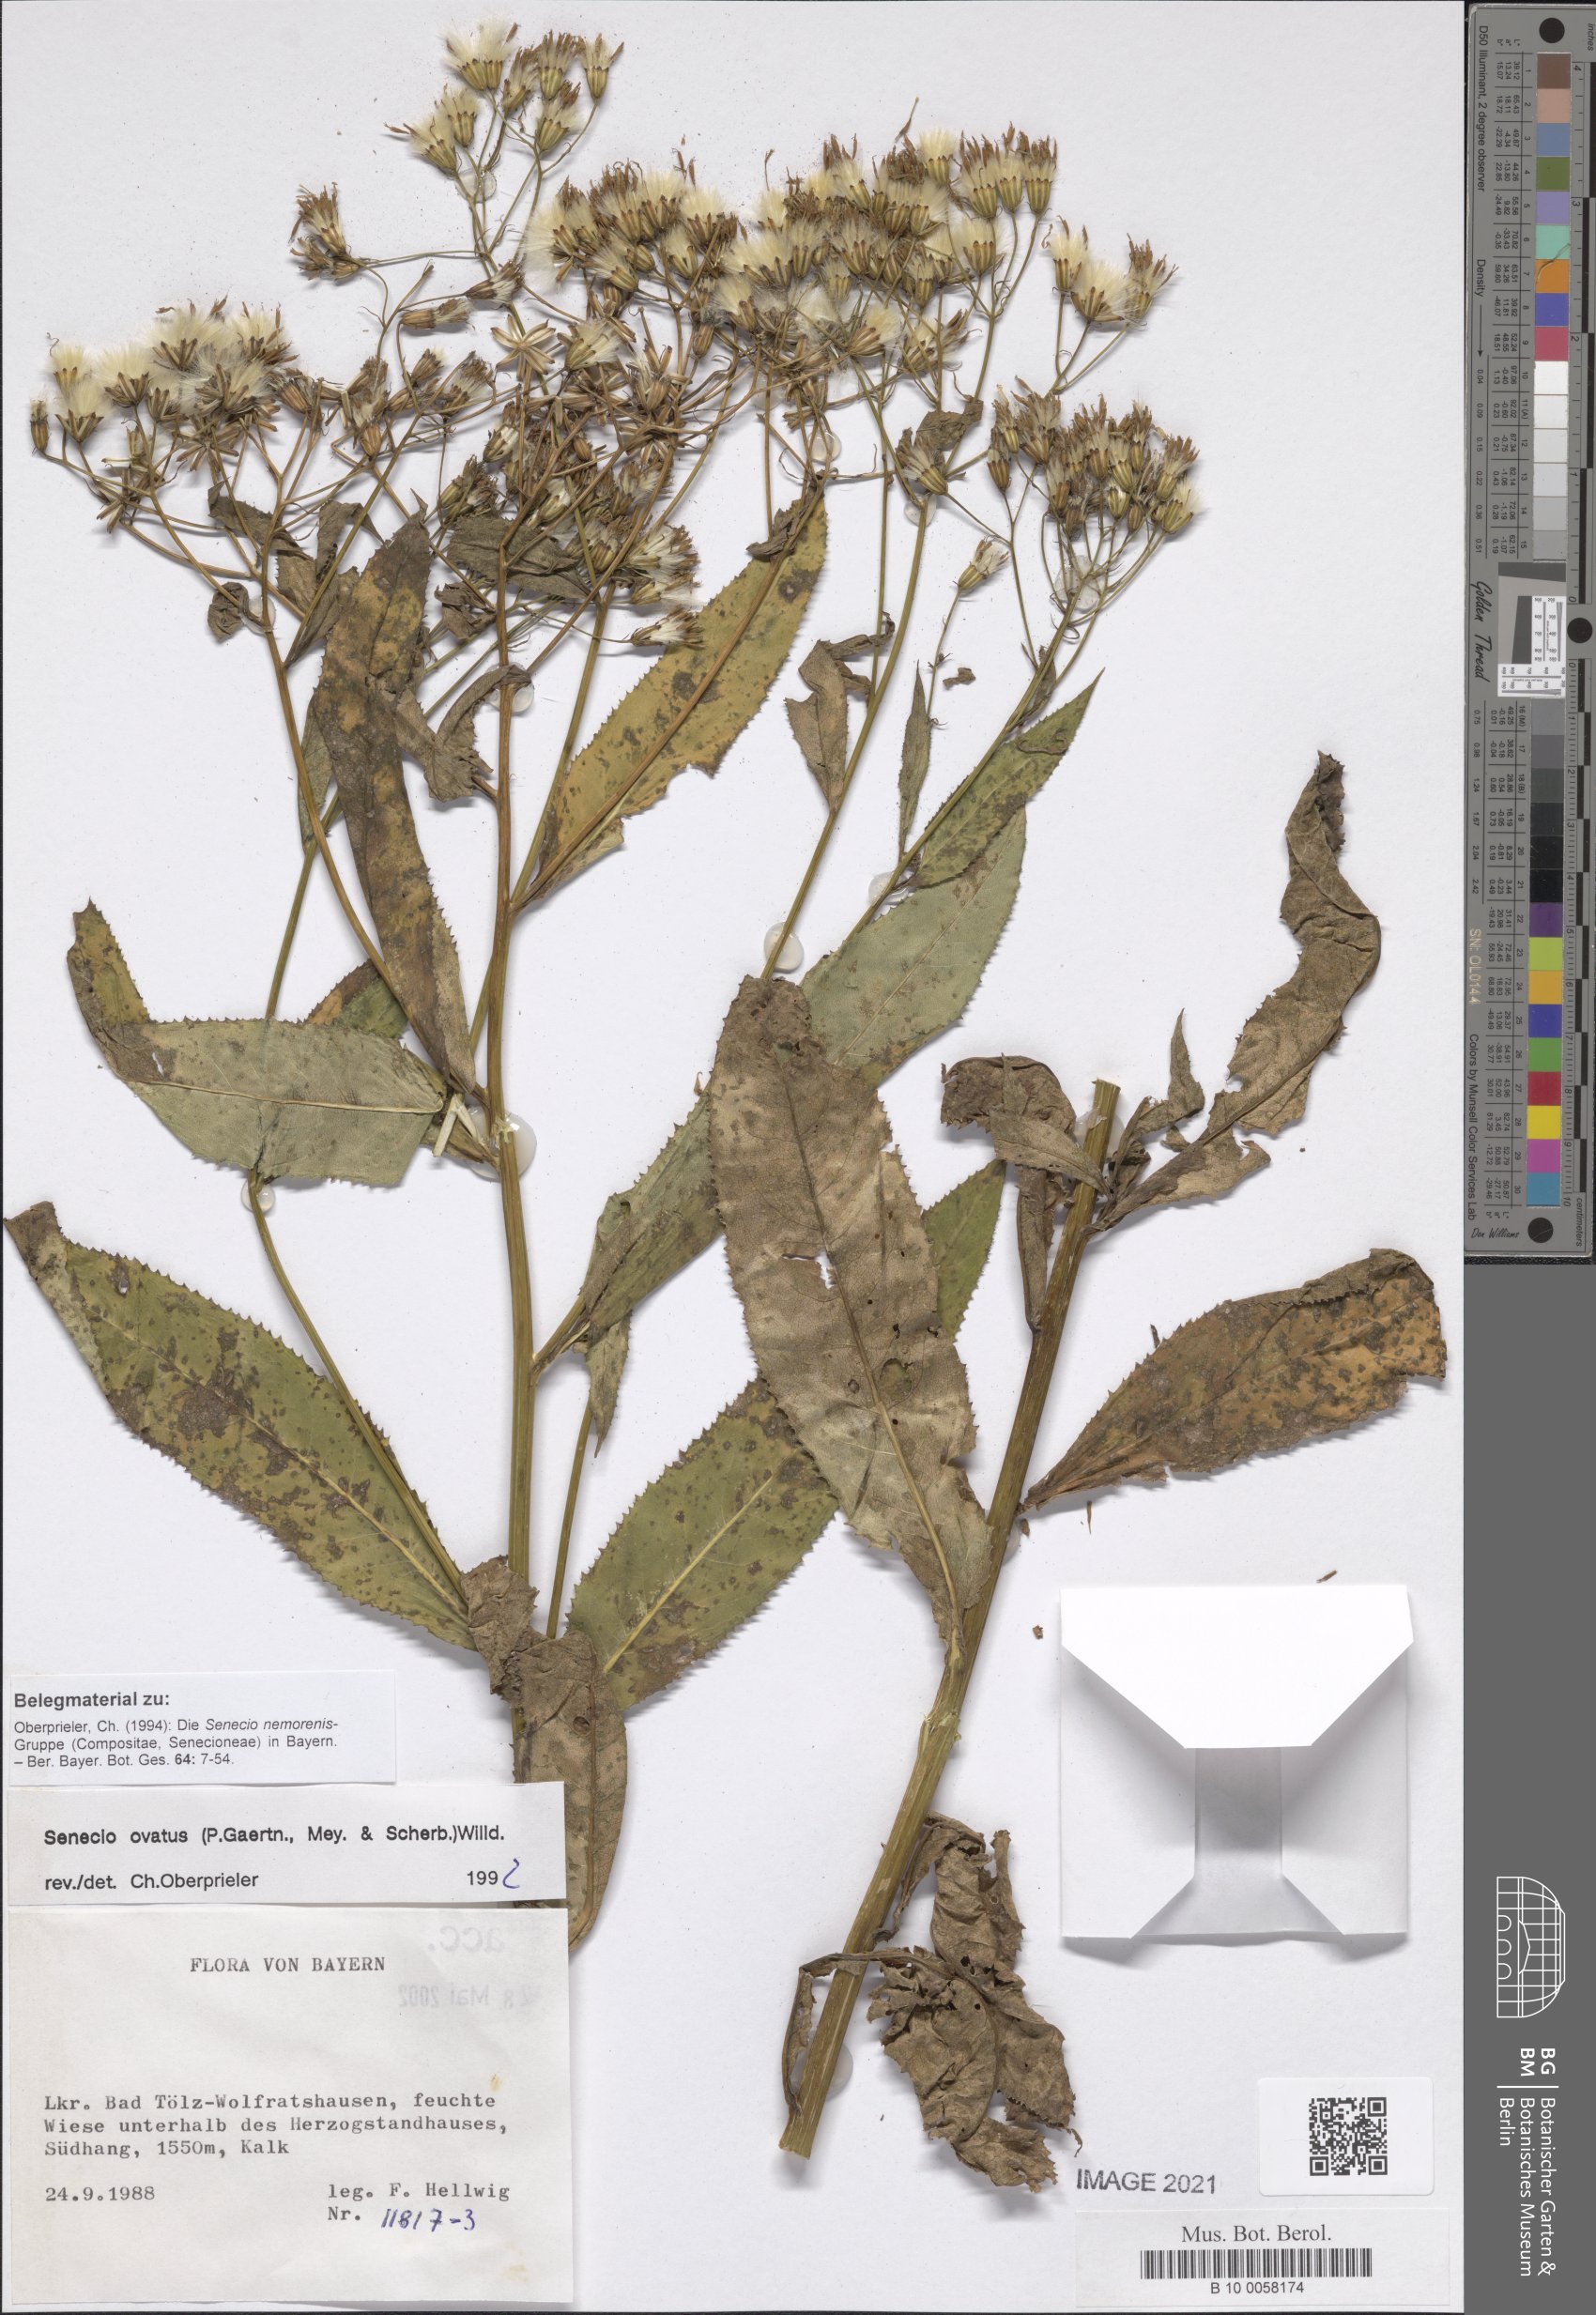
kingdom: Plantae
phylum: Tracheophyta
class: Magnoliopsida
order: Asterales
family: Asteraceae
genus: Senecio
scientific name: Senecio ovatus
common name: Wood ragwort
